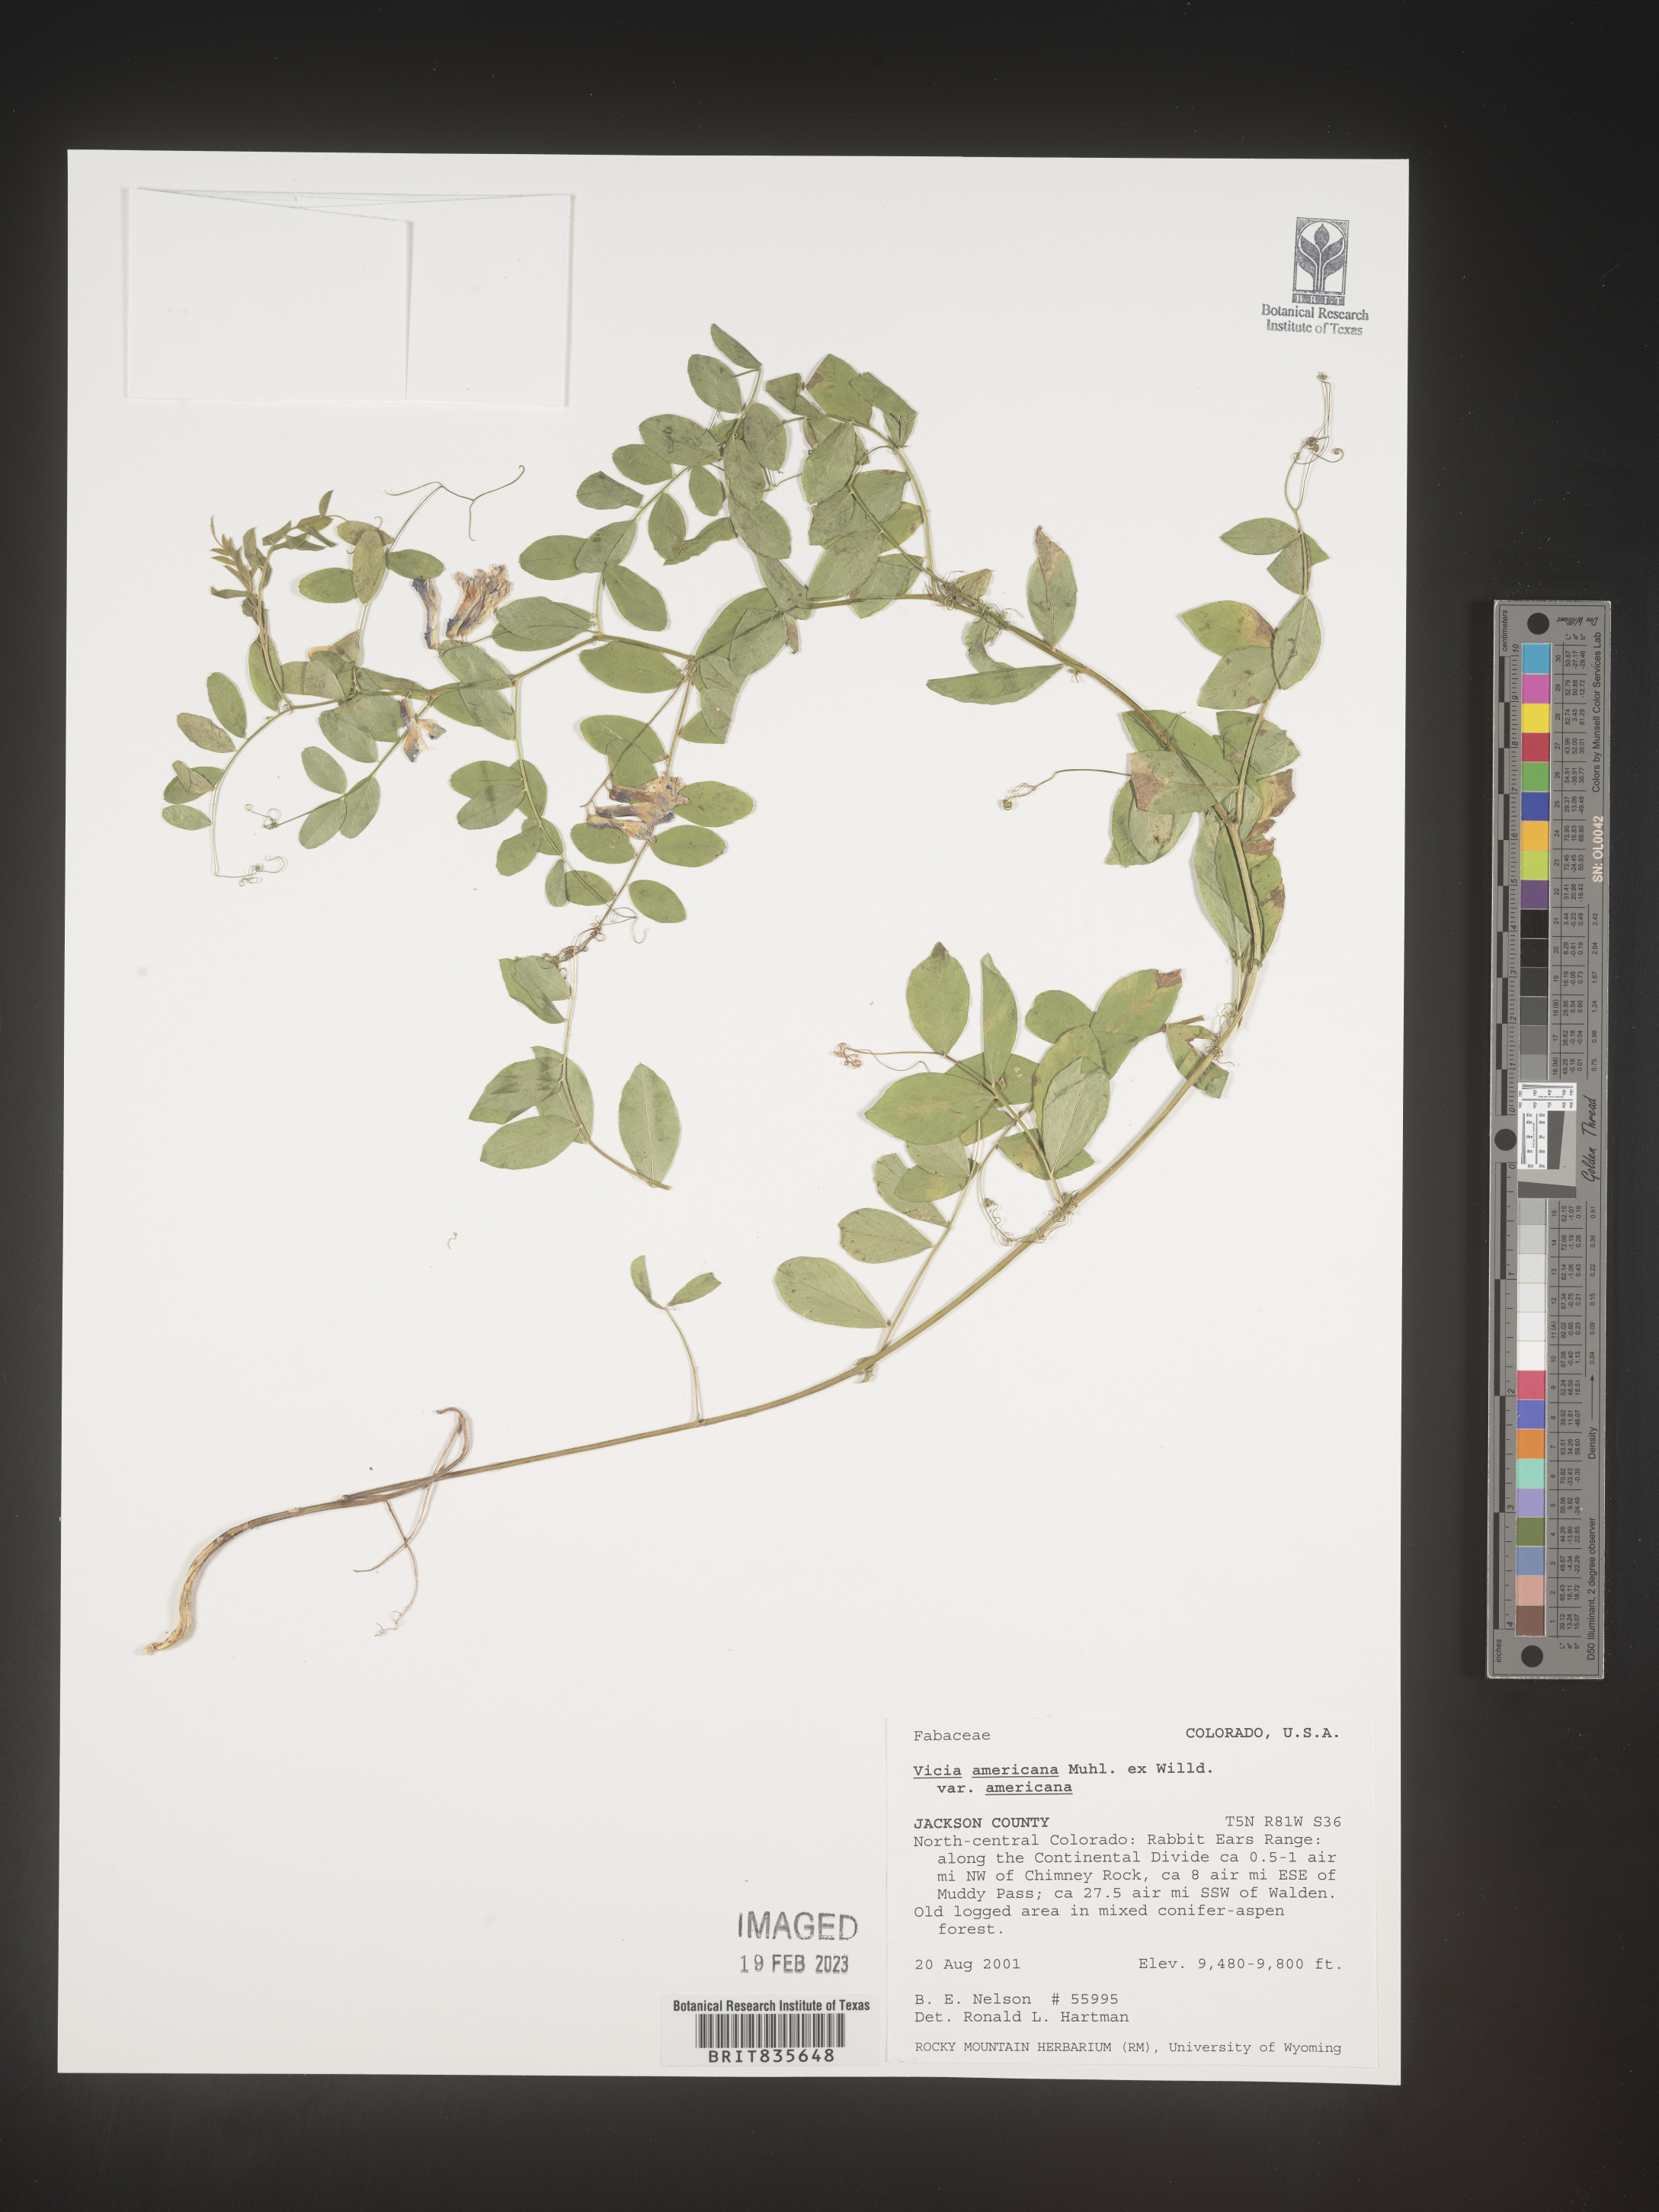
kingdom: Plantae
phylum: Tracheophyta
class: Magnoliopsida
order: Fabales
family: Fabaceae
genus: Vicia
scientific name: Vicia americana
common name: American vetch
